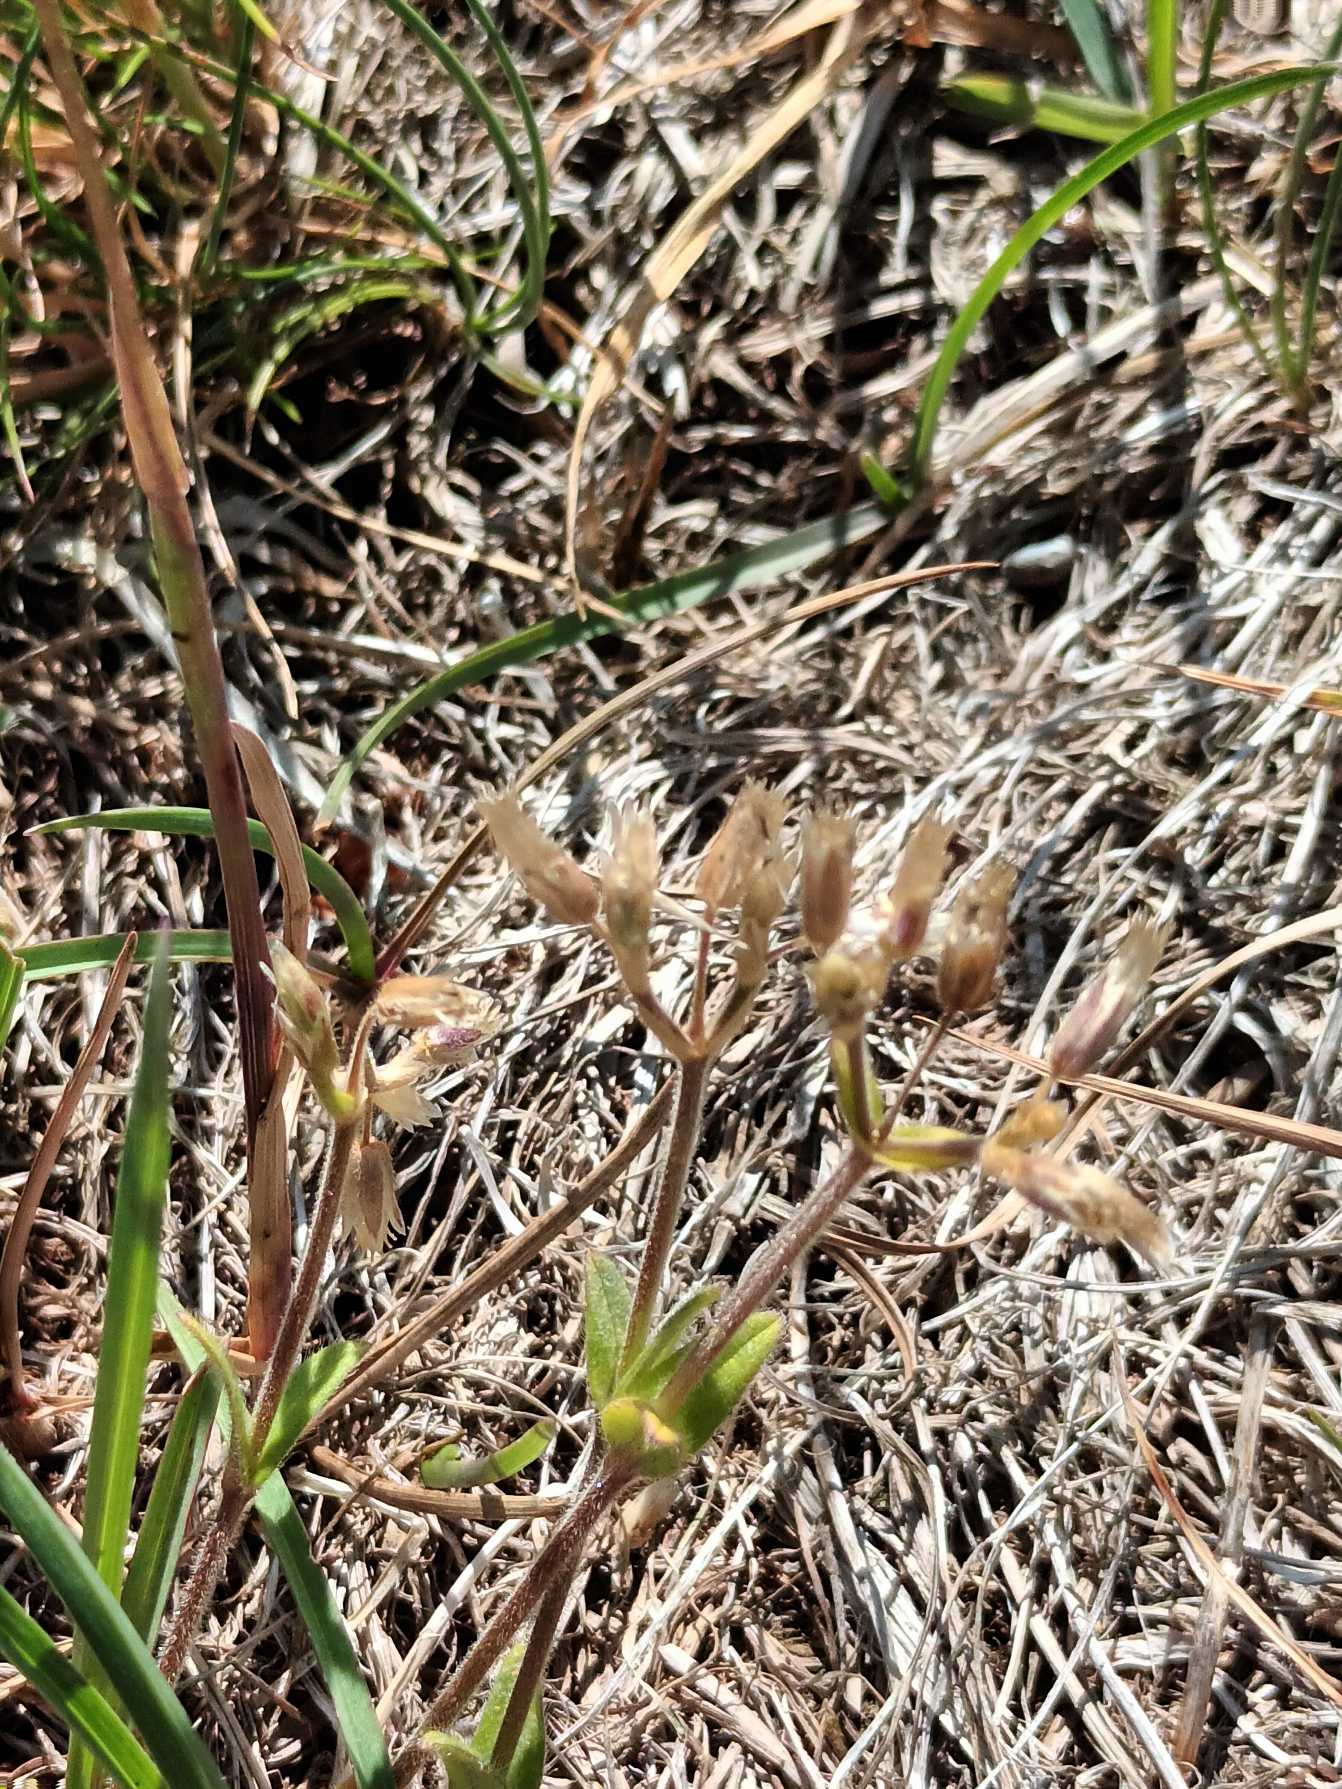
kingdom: Plantae
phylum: Tracheophyta
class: Magnoliopsida
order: Caryophyllales
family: Caryophyllaceae
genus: Cerastium
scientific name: Cerastium fontanum
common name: Almindelig hønsetarm
